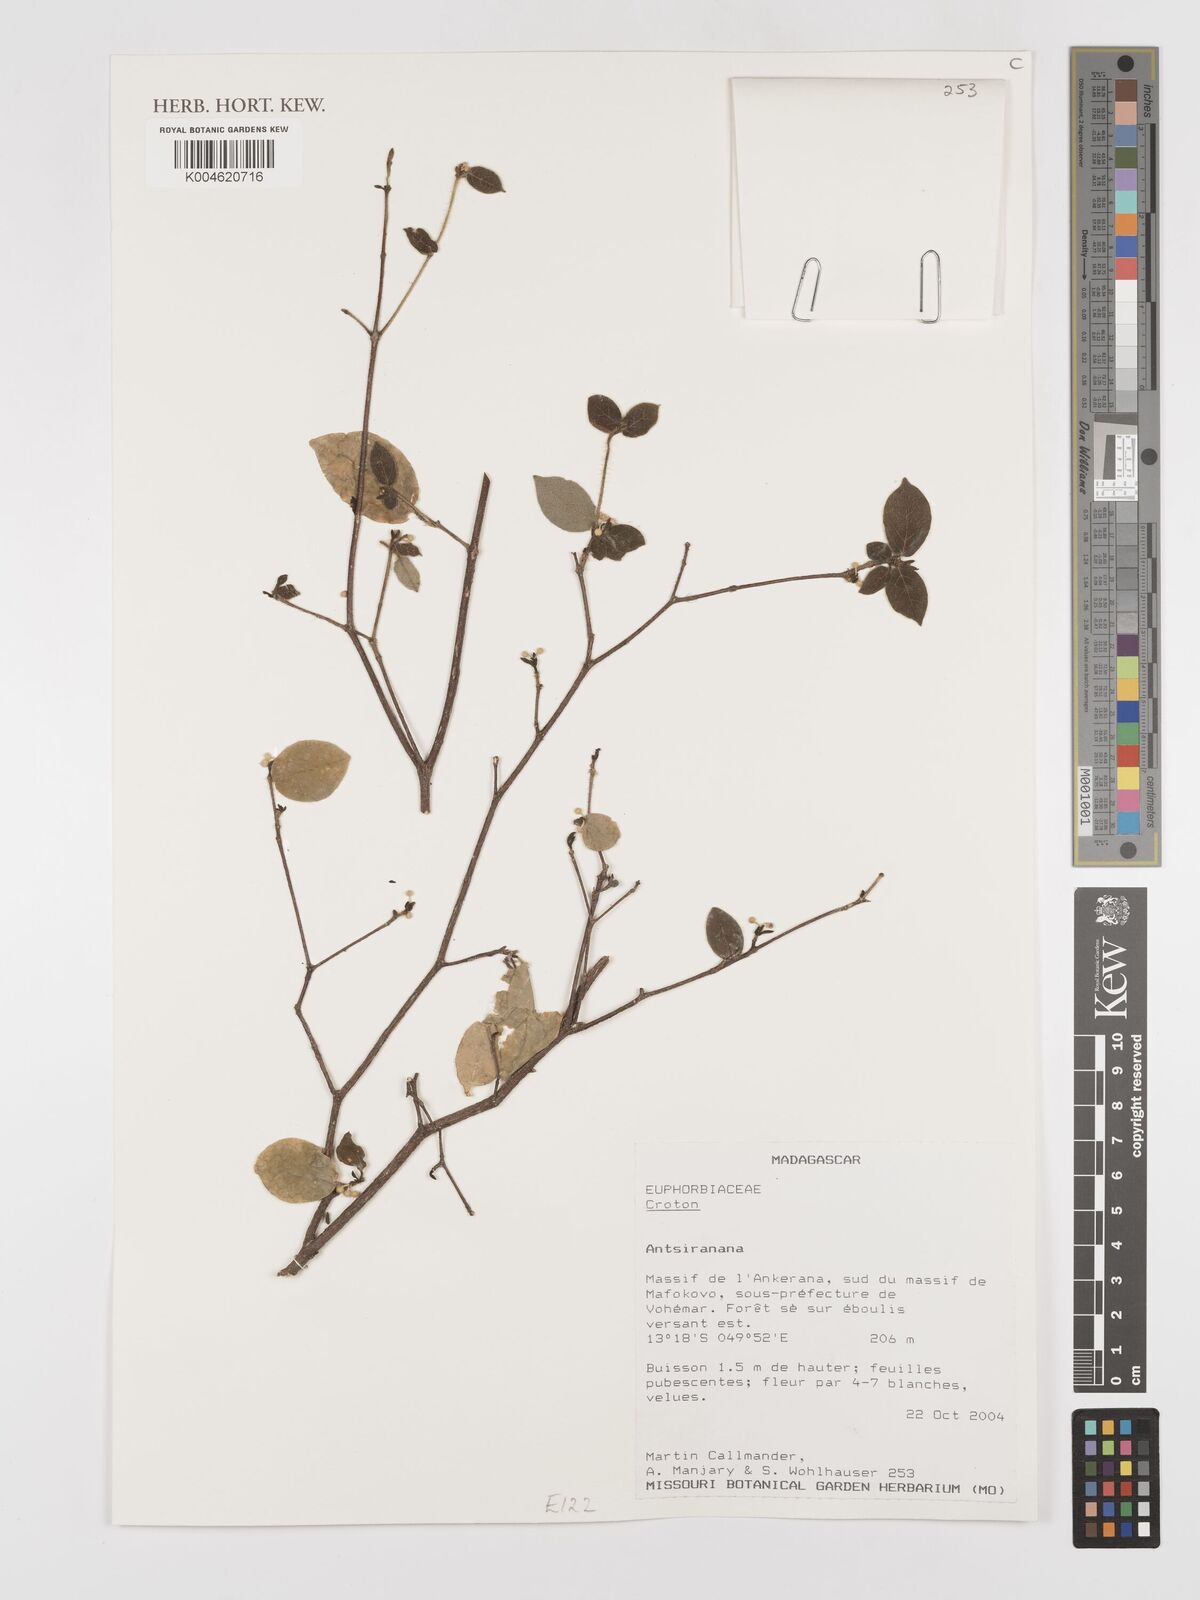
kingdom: Plantae
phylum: Tracheophyta
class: Magnoliopsida
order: Malpighiales
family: Euphorbiaceae
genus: Croton
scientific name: Croton
